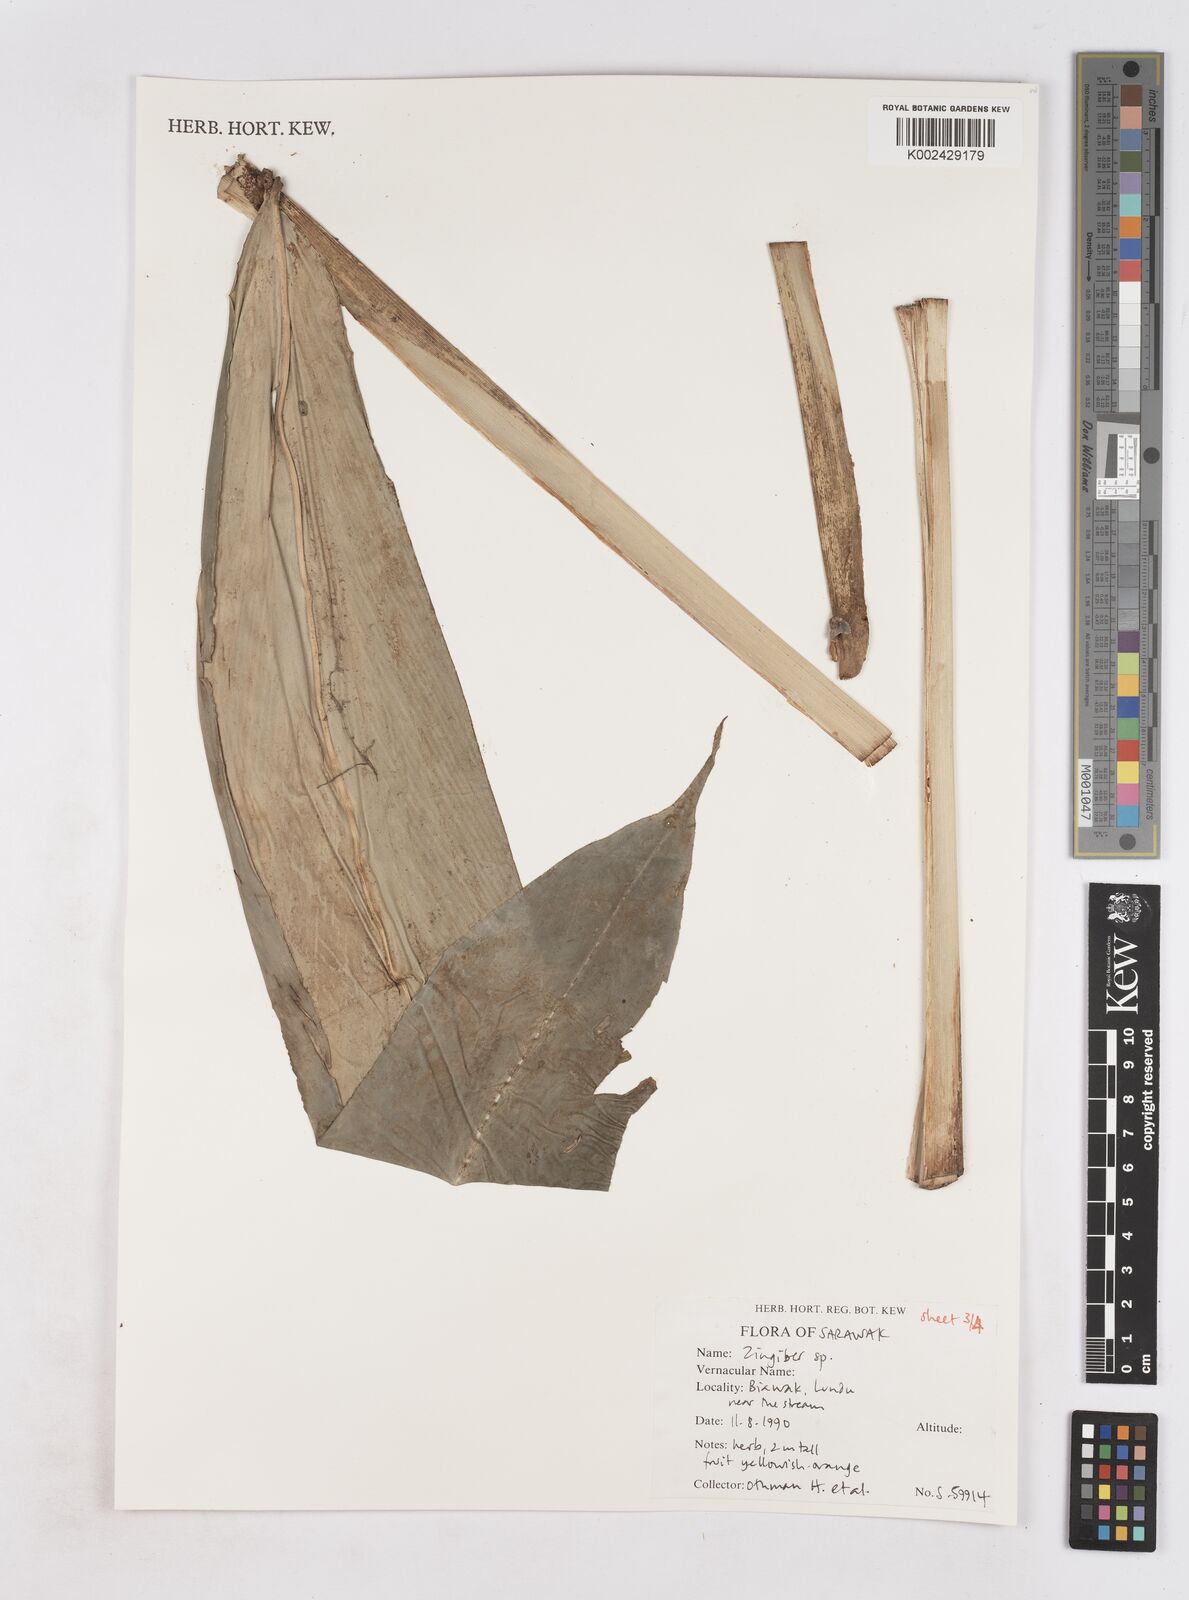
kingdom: Plantae
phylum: Tracheophyta
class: Liliopsida
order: Zingiberales
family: Zingiberaceae
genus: Zingiber
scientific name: Zingiber
